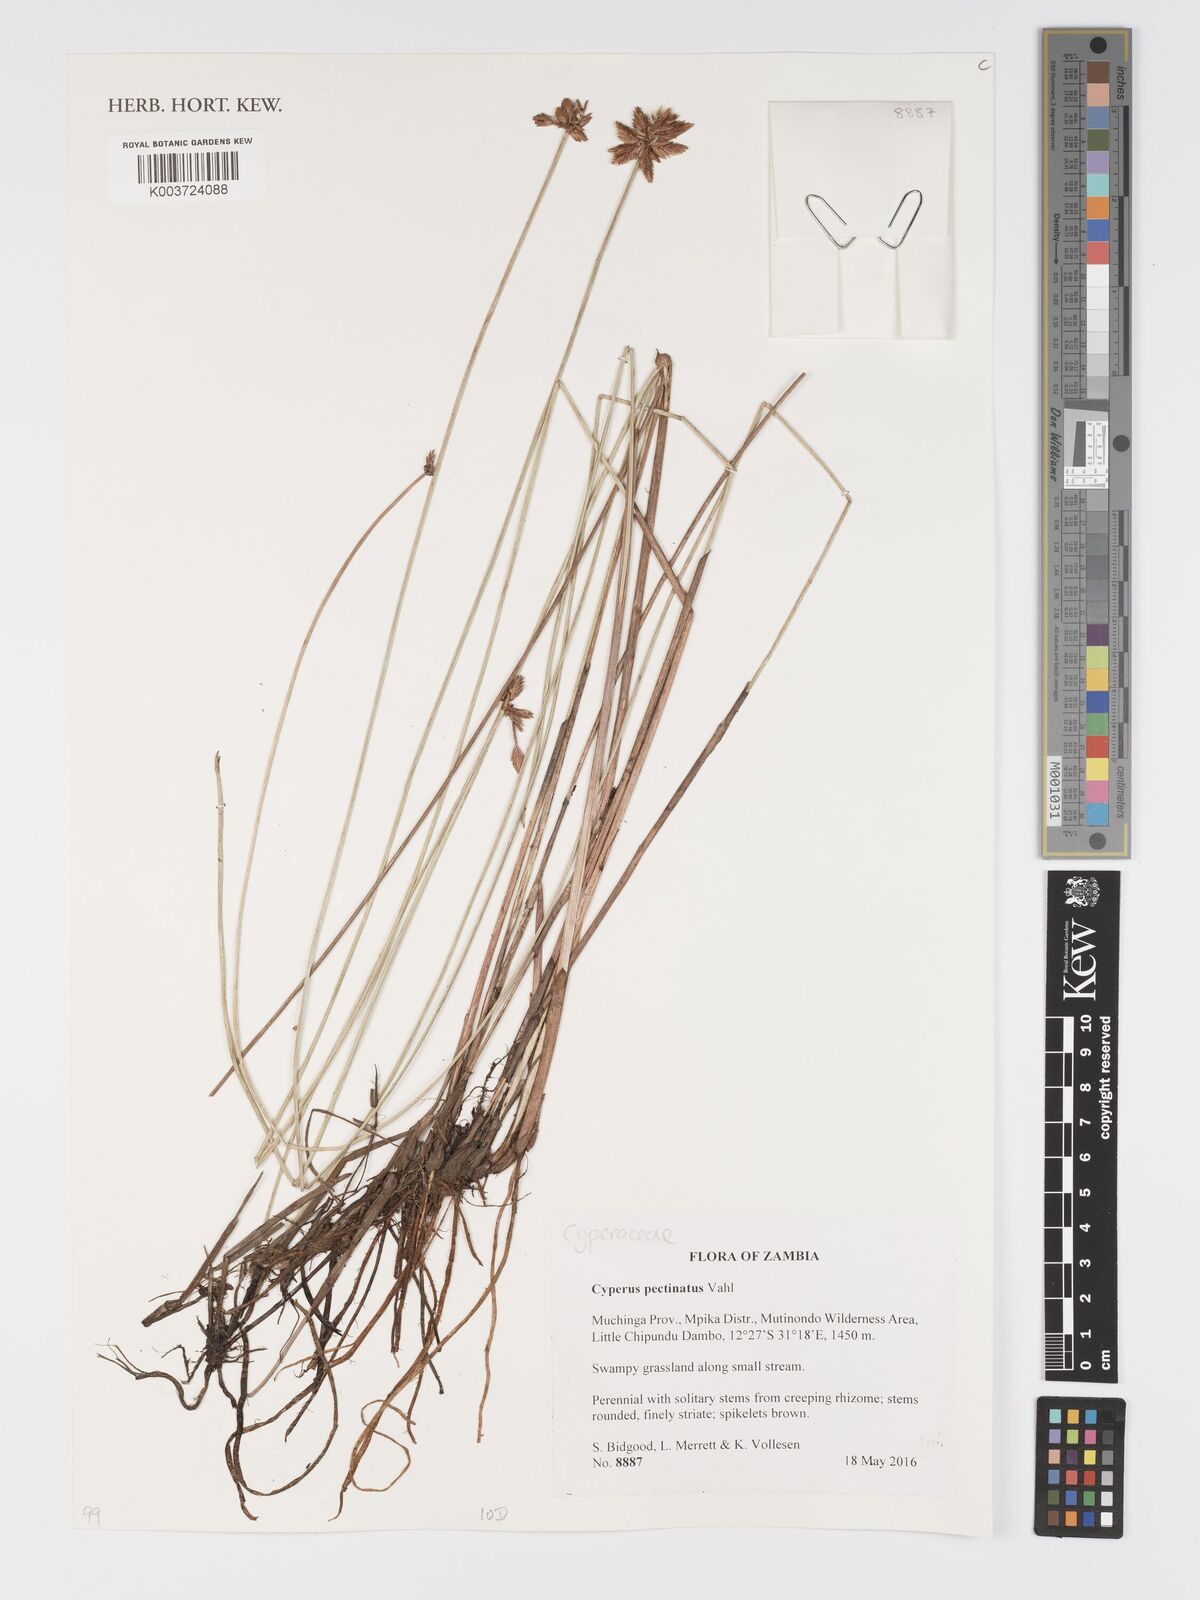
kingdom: Plantae
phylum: Tracheophyta
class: Liliopsida
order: Poales
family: Cyperaceae
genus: Cyperus
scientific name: Cyperus compressus
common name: Poorland flatsedge
